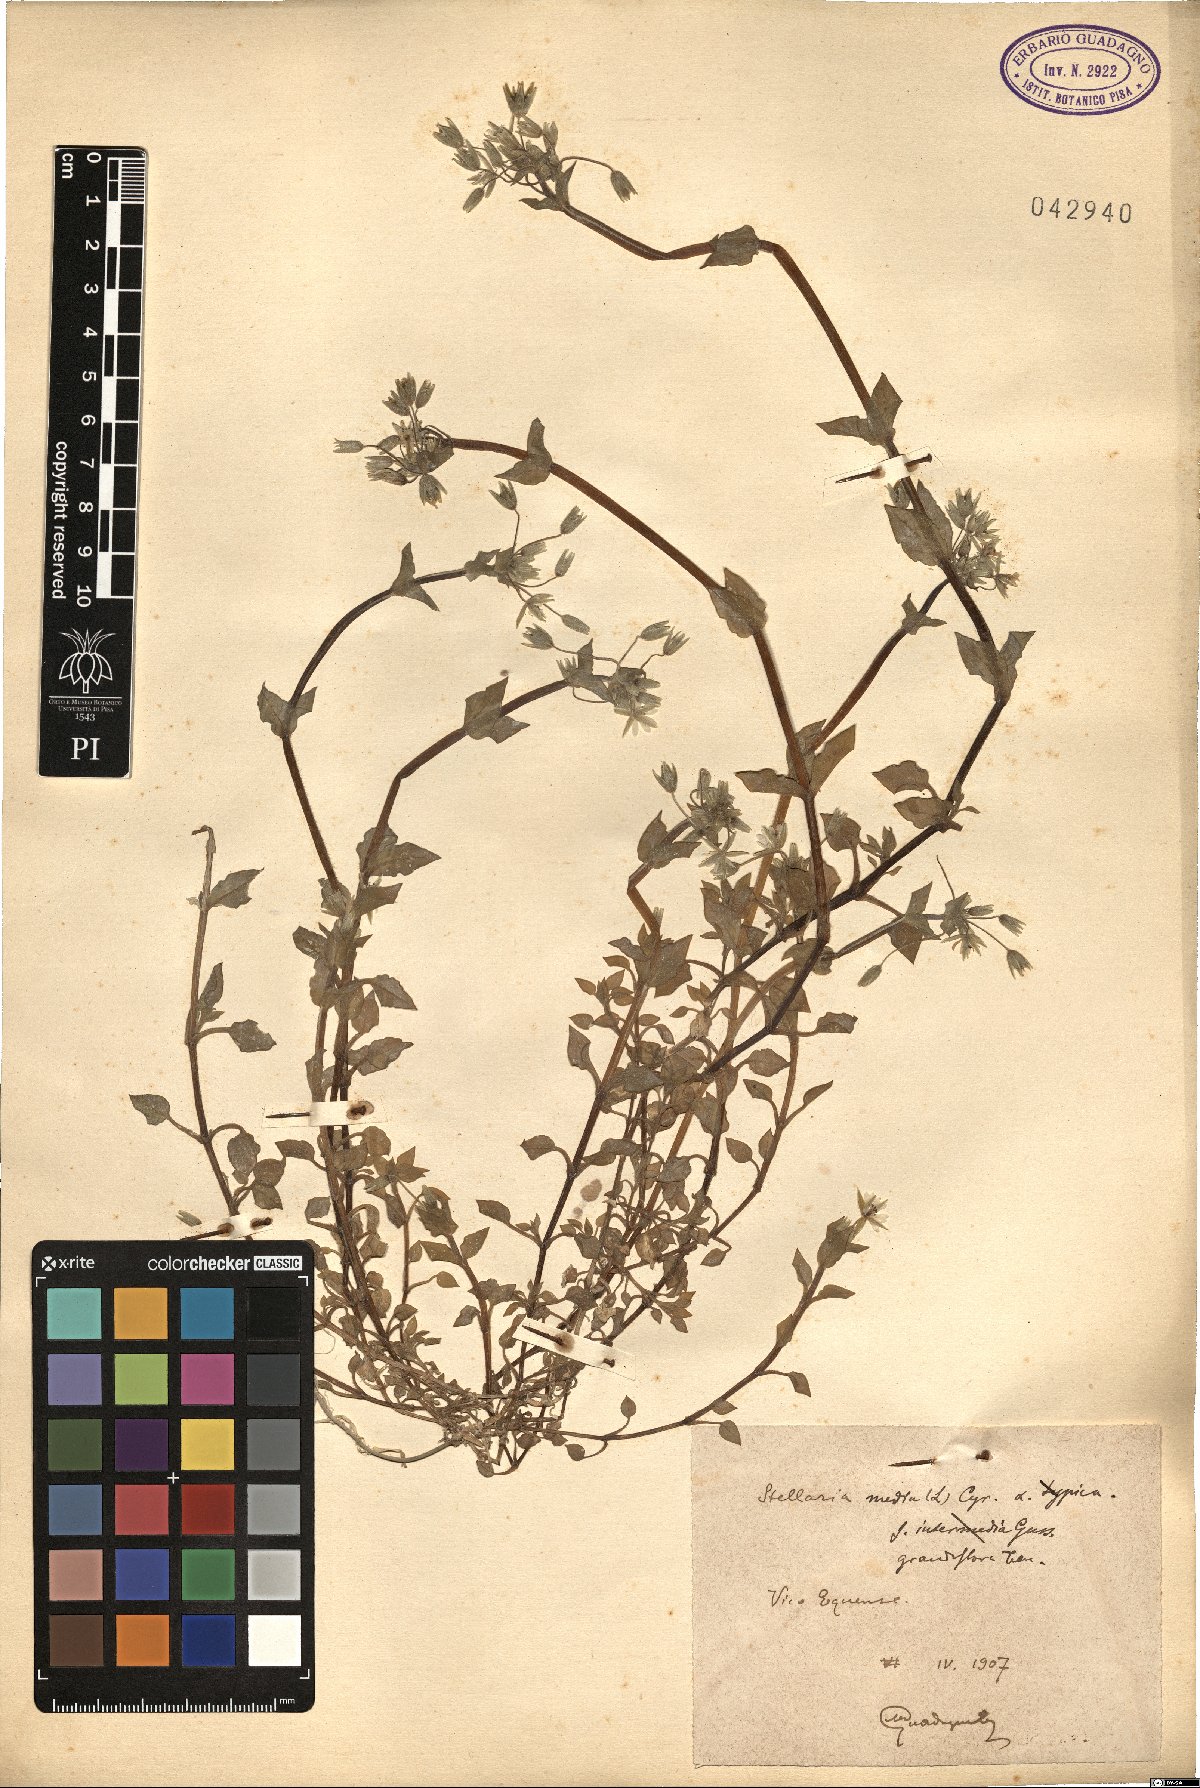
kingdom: Plantae
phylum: Tracheophyta
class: Magnoliopsida
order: Caryophyllales
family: Caryophyllaceae
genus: Stellaria
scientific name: Stellaria media
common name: Common chickweed
